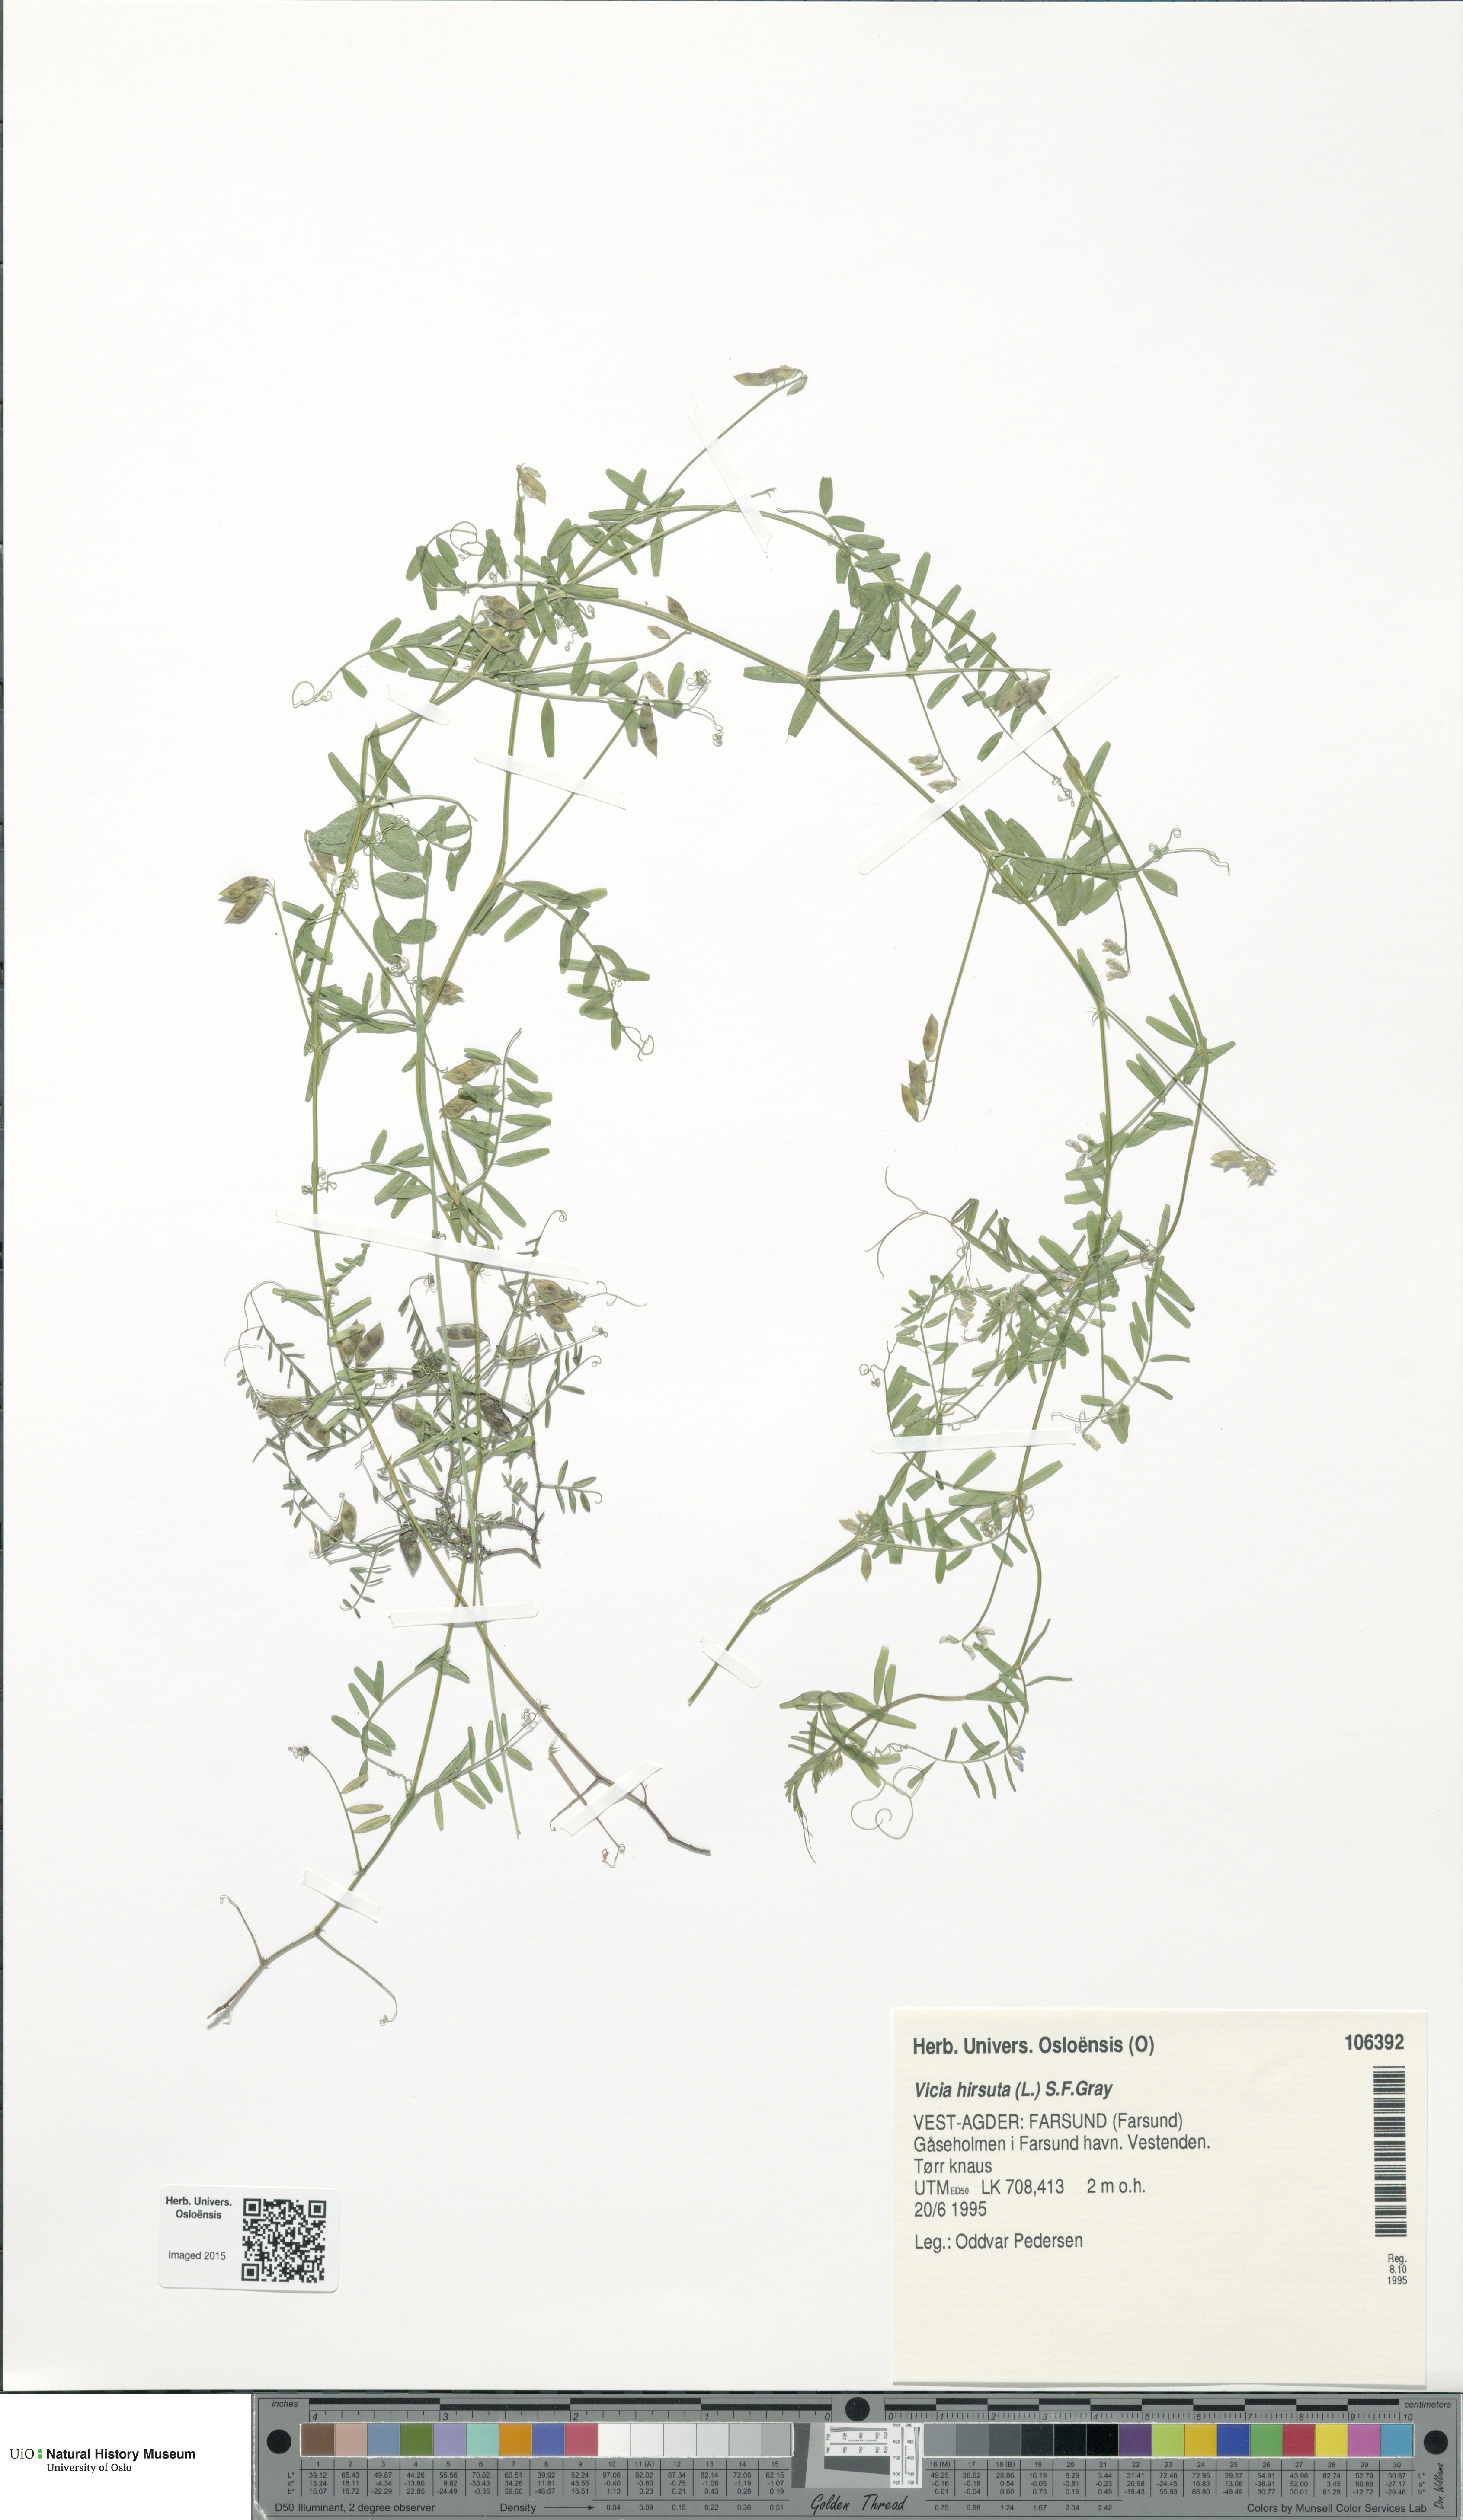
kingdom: Plantae
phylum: Tracheophyta
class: Magnoliopsida
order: Fabales
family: Fabaceae
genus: Vicia
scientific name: Vicia hirsuta
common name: Tiny vetch
